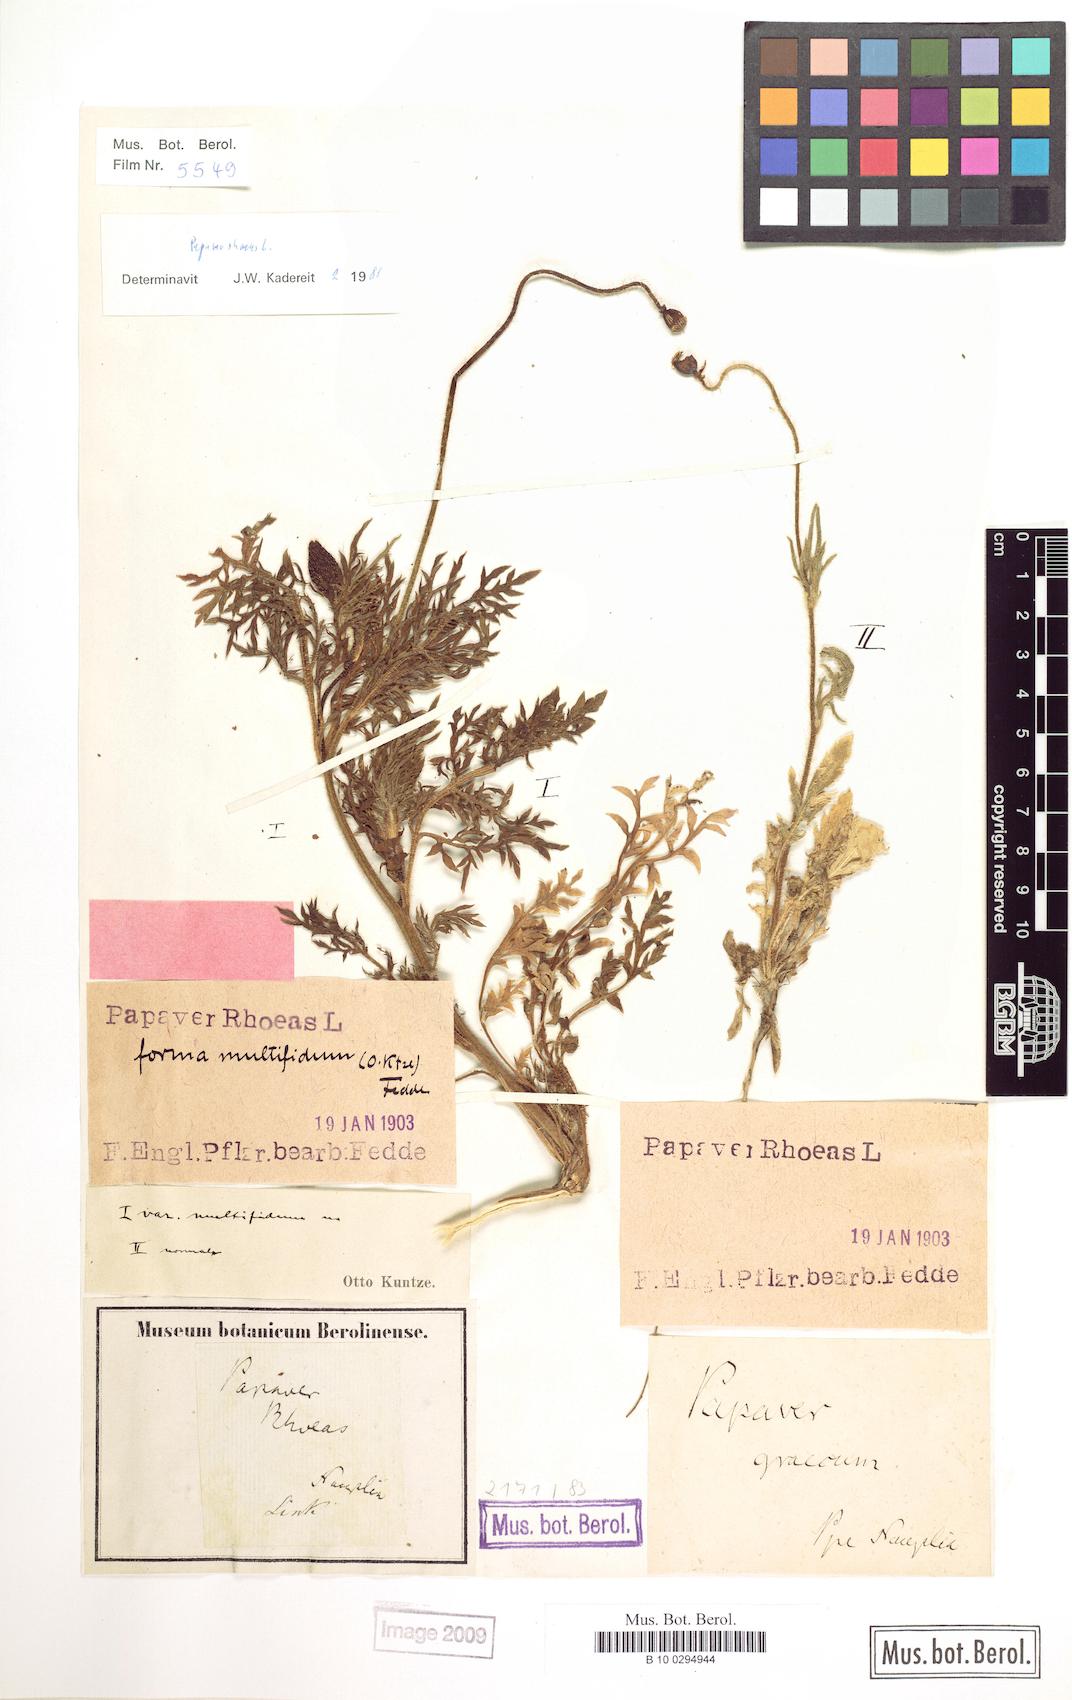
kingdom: Plantae
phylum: Tracheophyta
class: Magnoliopsida
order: Ranunculales
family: Papaveraceae
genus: Papaver
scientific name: Papaver rhoeas
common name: Corn poppy
